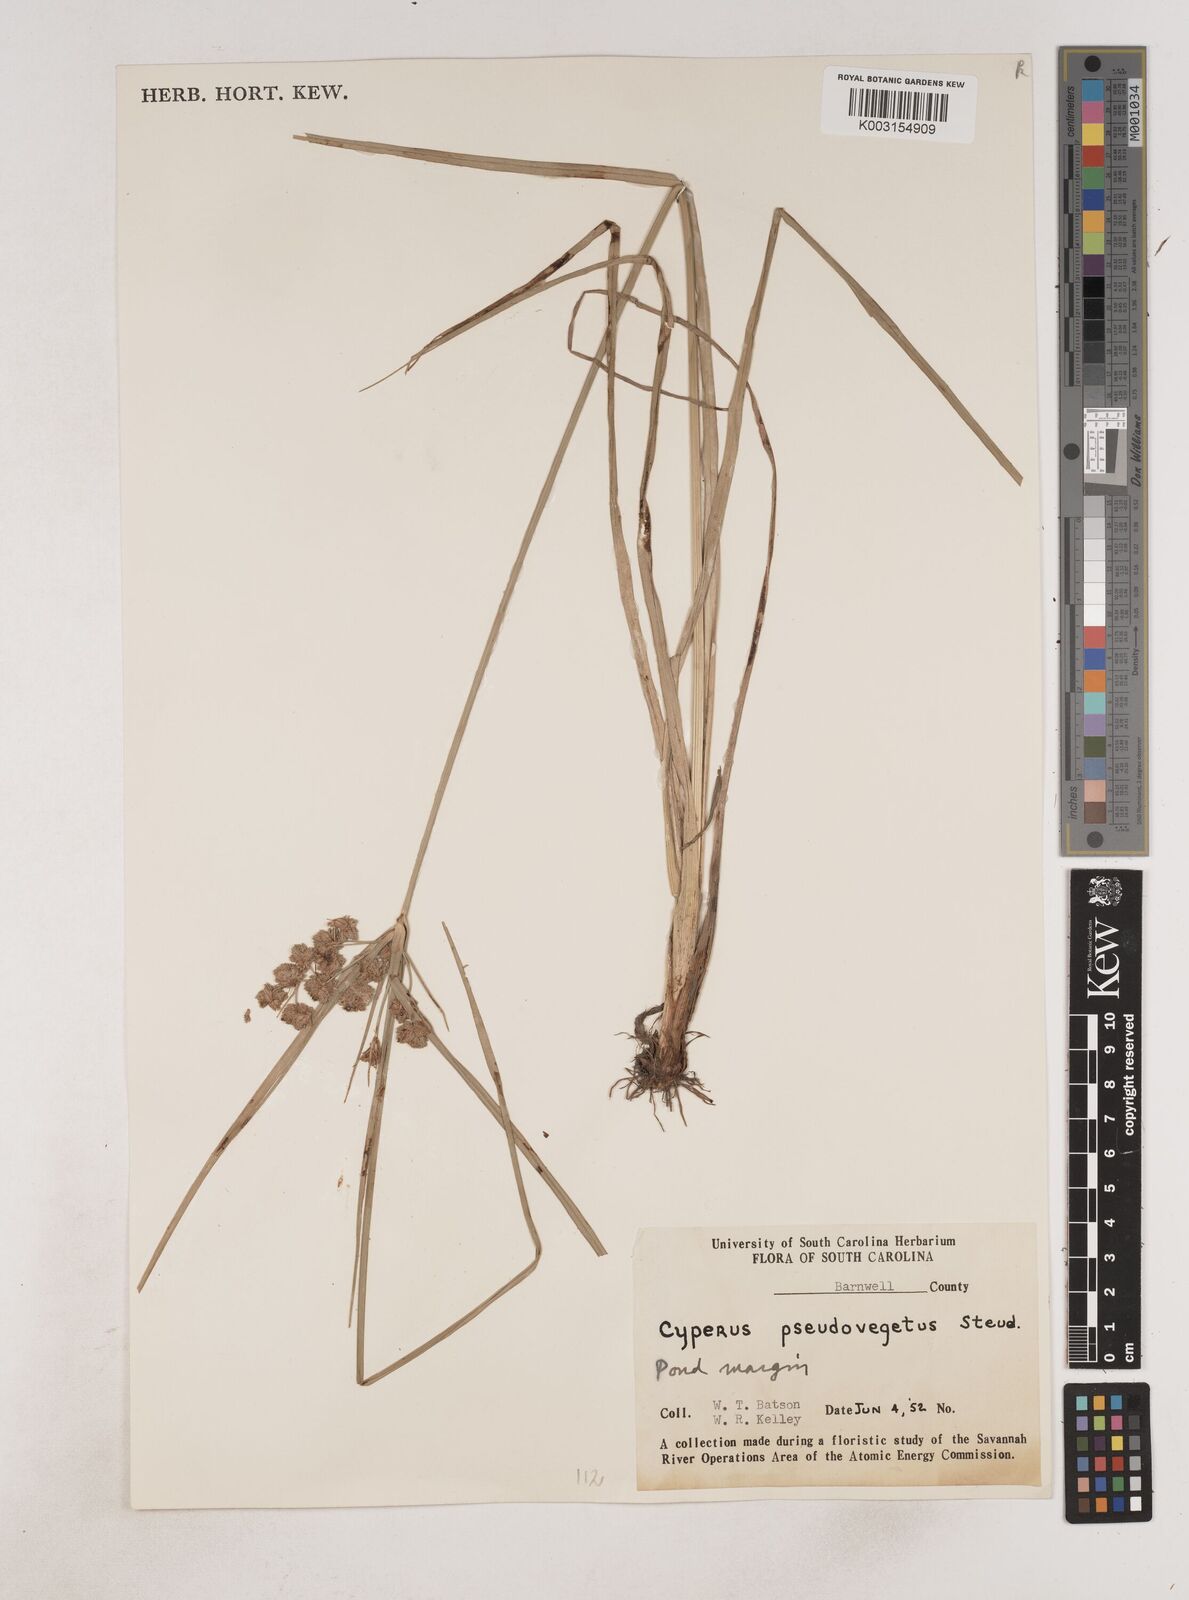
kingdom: Plantae
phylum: Tracheophyta
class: Liliopsida
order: Poales
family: Cyperaceae
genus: Cyperus
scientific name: Cyperus pseudovegetus
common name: Marsh flat sedge
